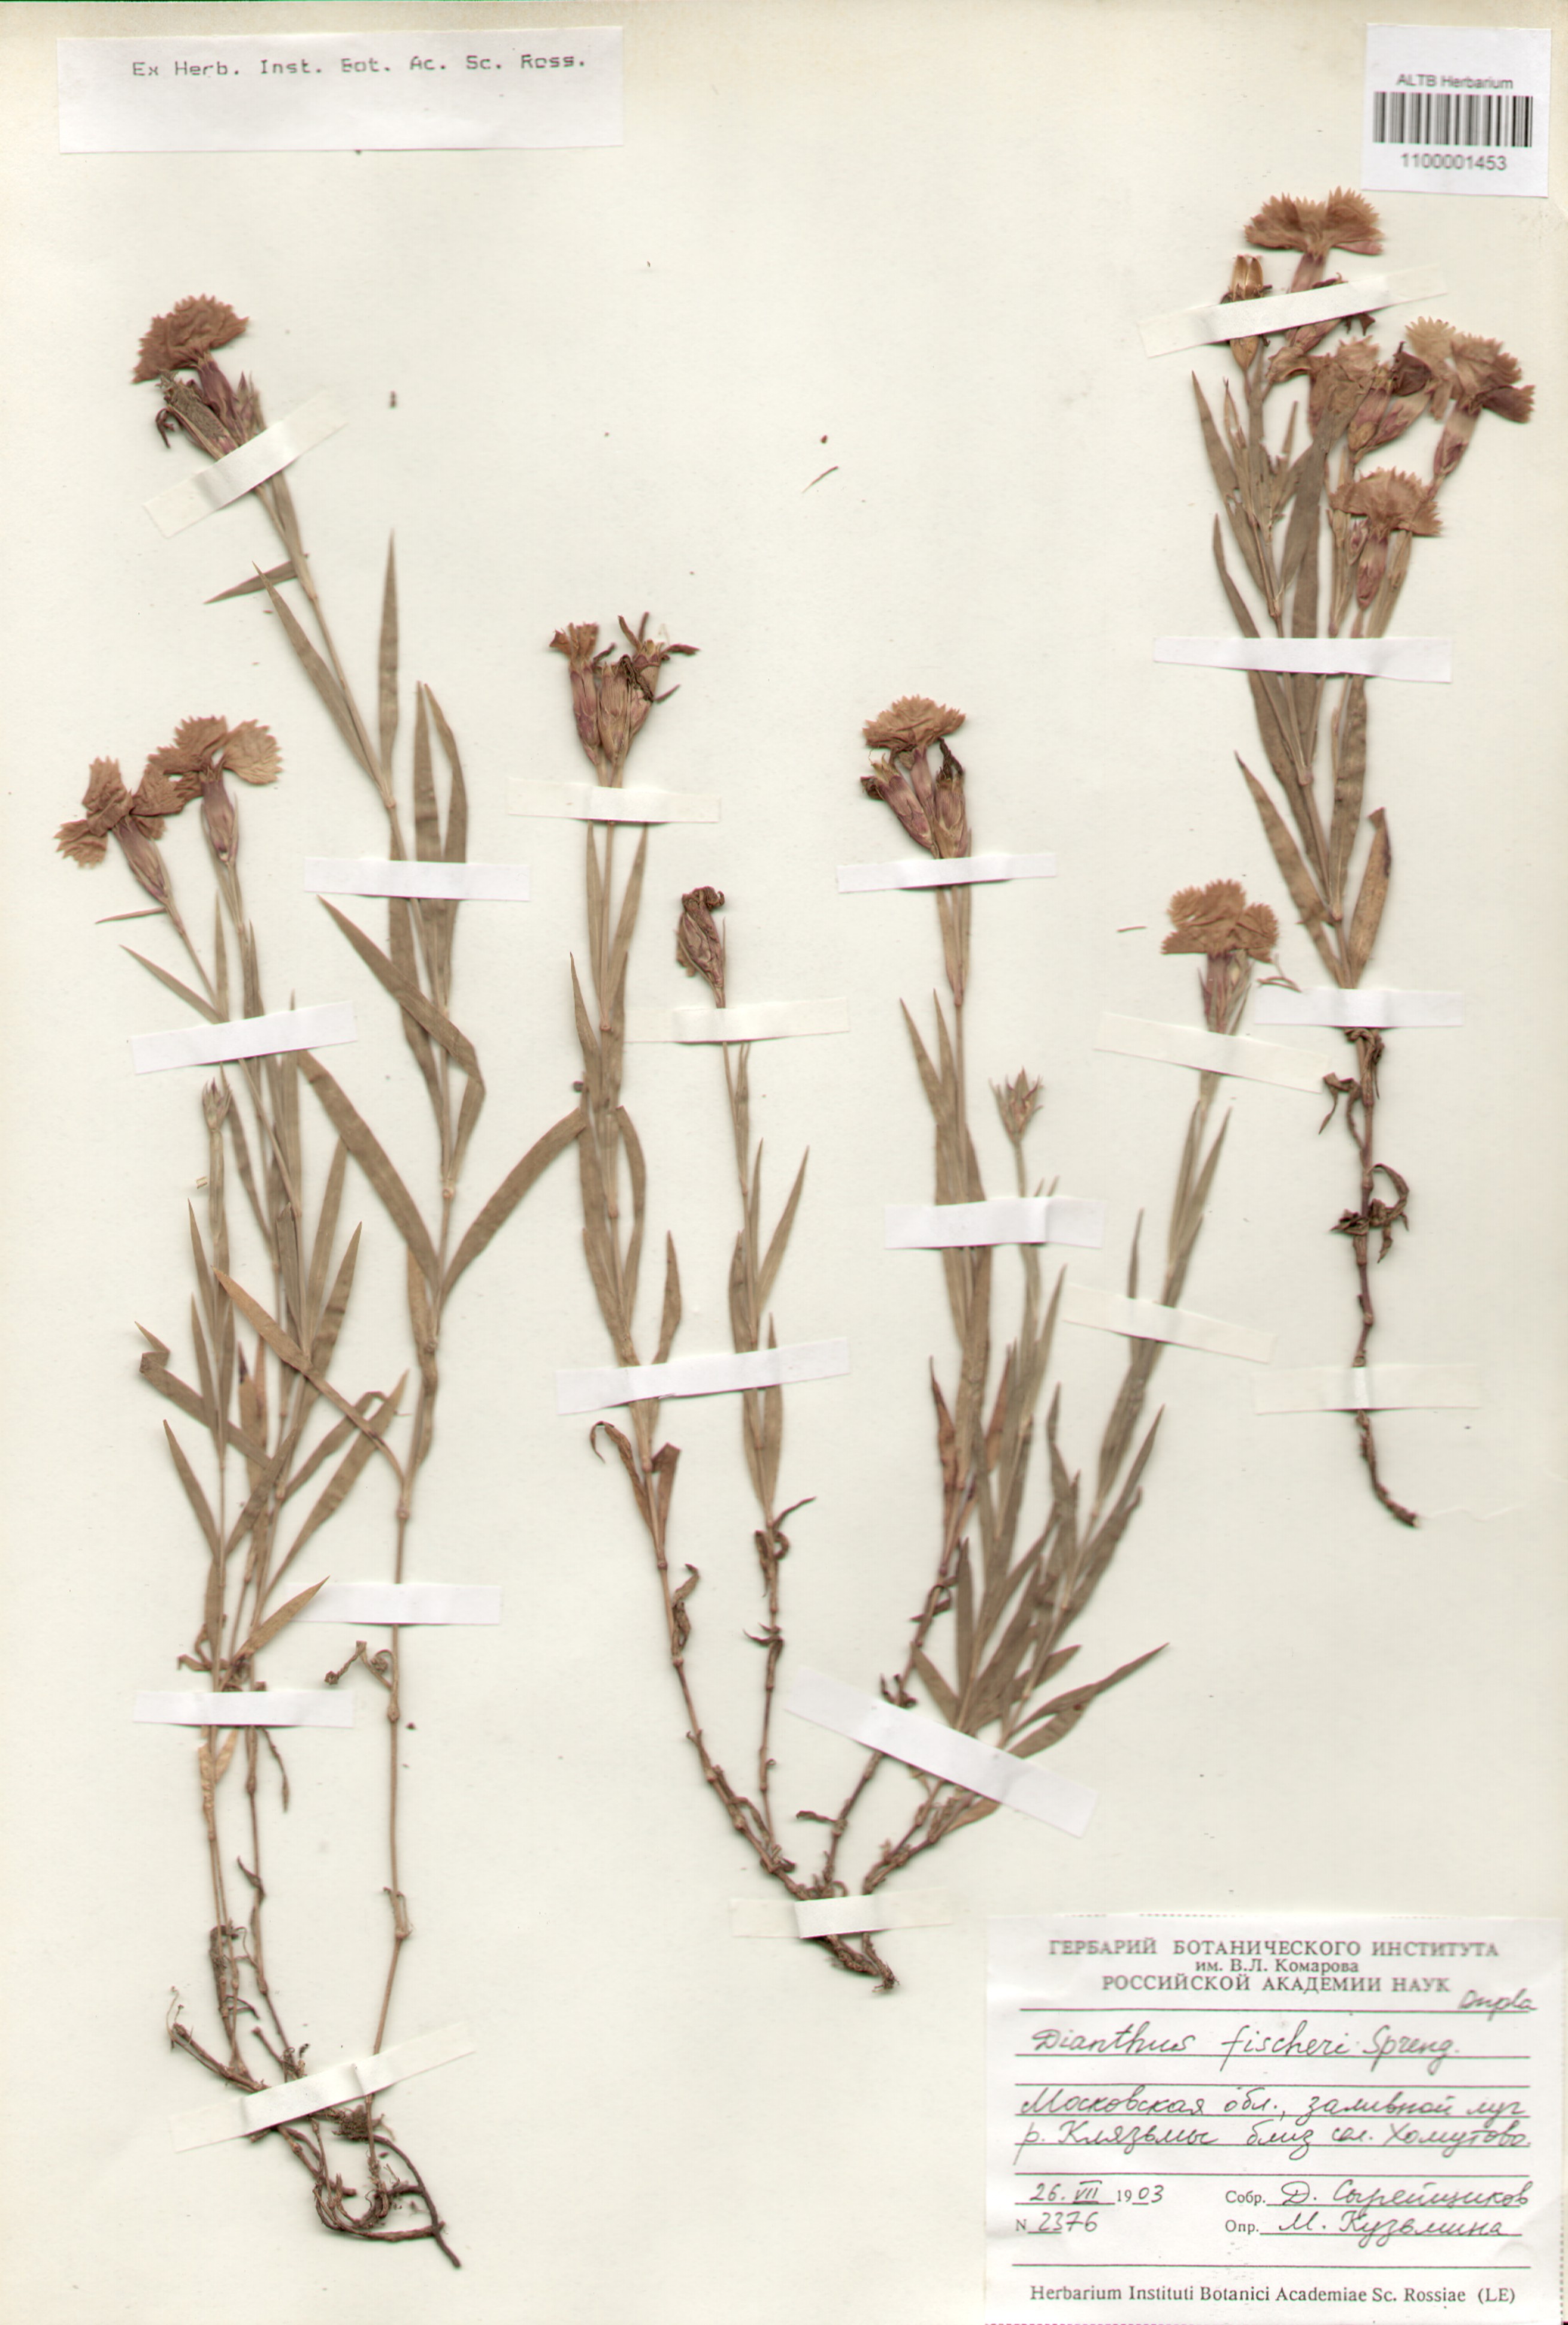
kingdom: Plantae
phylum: Tracheophyta
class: Magnoliopsida
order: Caryophyllales
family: Caryophyllaceae
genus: Dianthus
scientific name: Dianthus chinensis
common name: Rainbow pink
